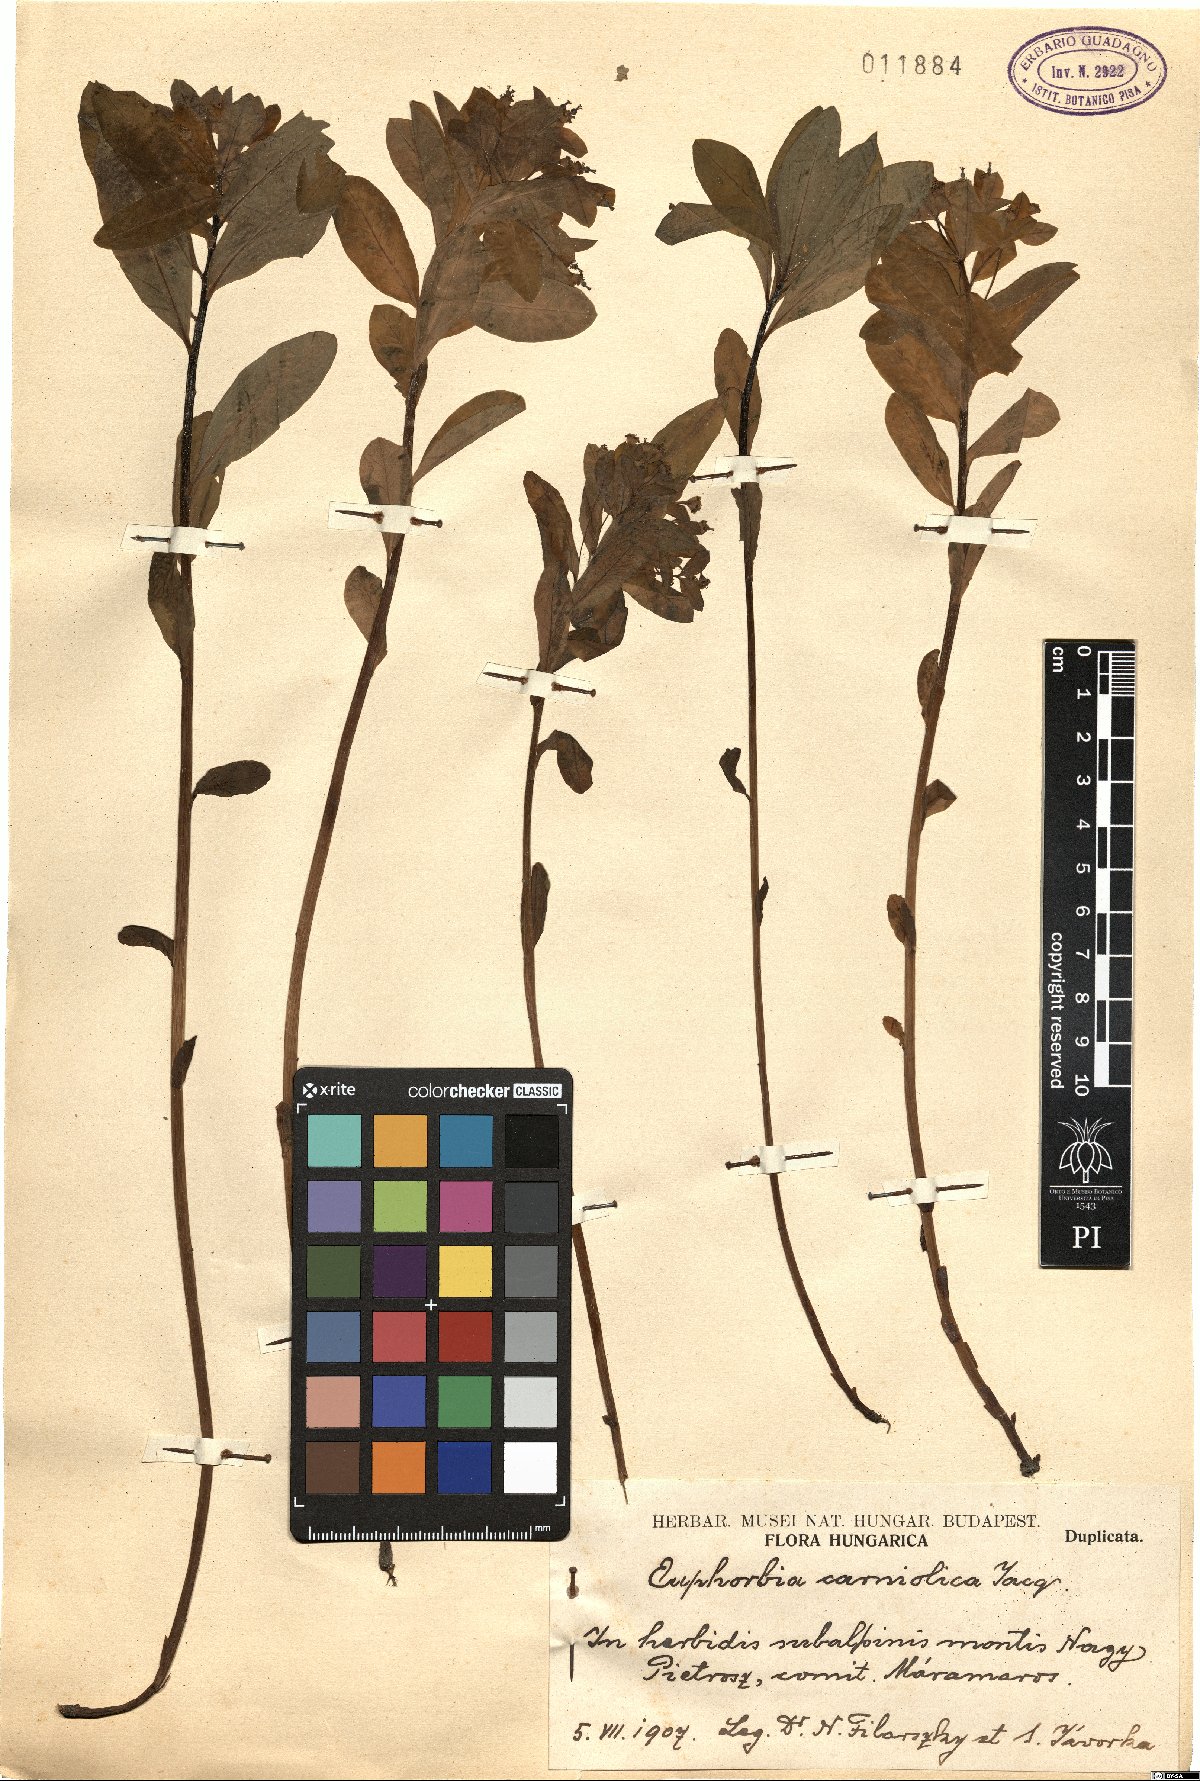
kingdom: Plantae
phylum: Tracheophyta
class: Magnoliopsida
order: Malpighiales
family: Euphorbiaceae
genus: Euphorbia
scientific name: Euphorbia carniolica
